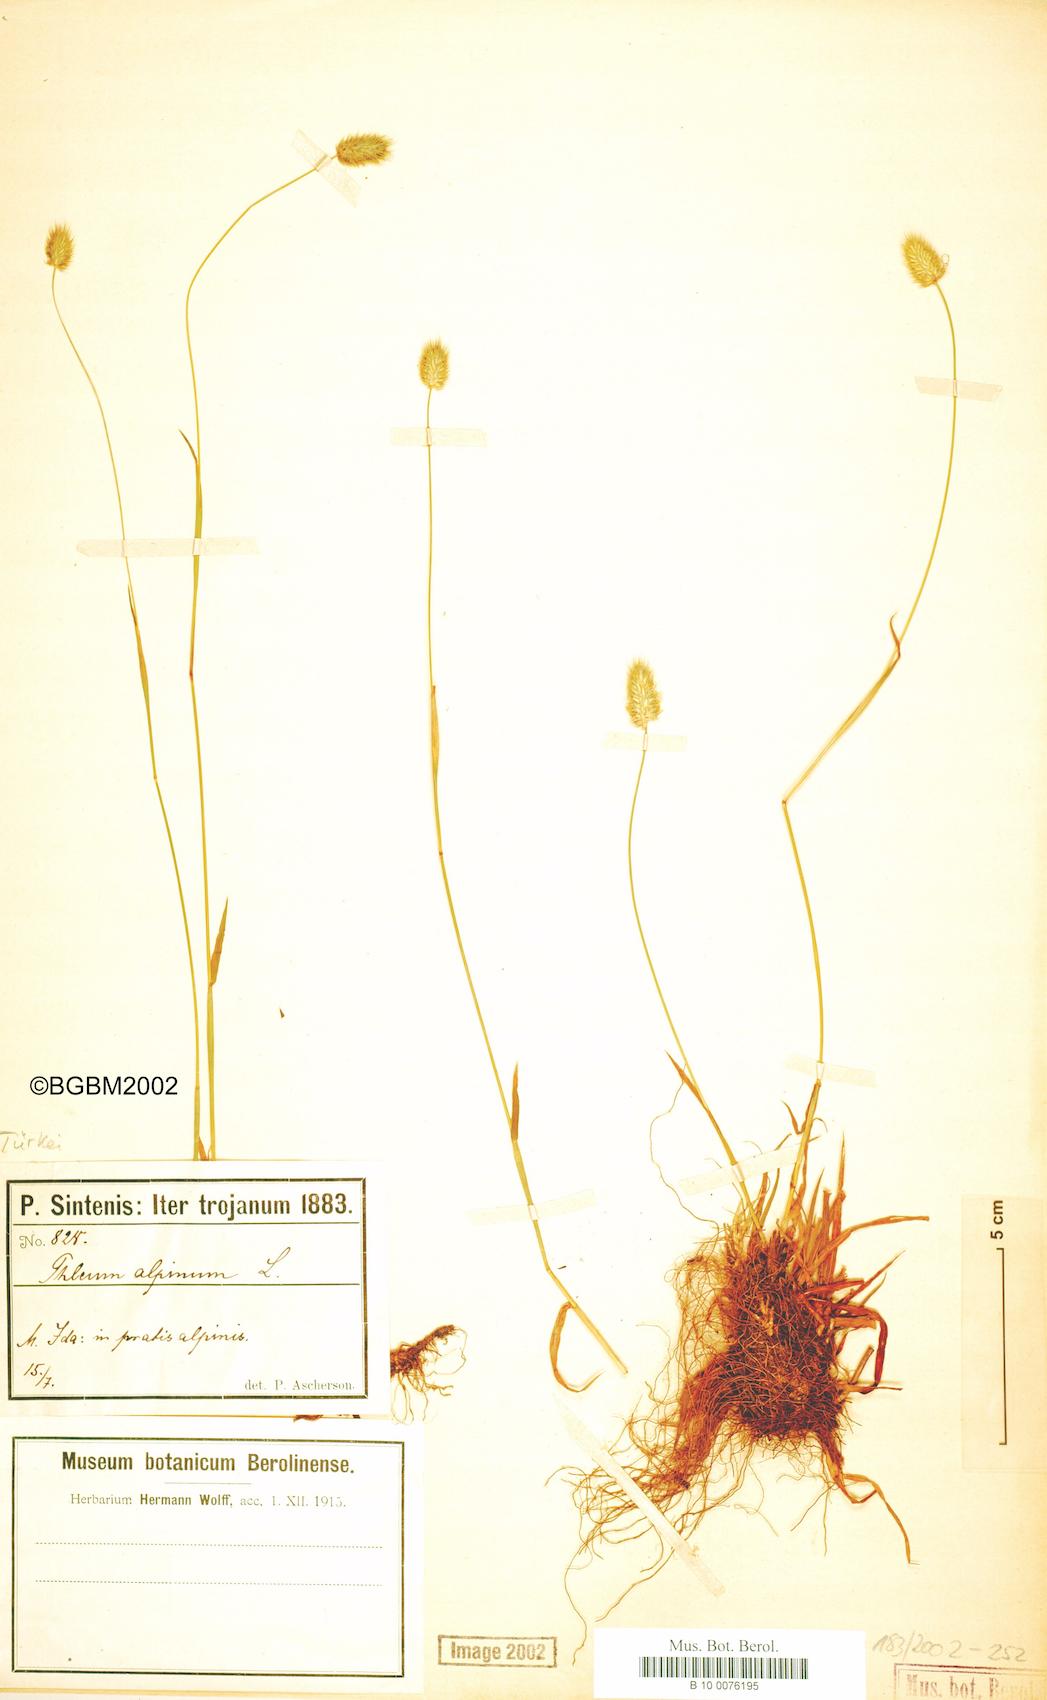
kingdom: Plantae
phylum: Tracheophyta
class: Liliopsida
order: Poales
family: Poaceae
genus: Phleum
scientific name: Phleum alpinum
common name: Alpine cat's-tail
